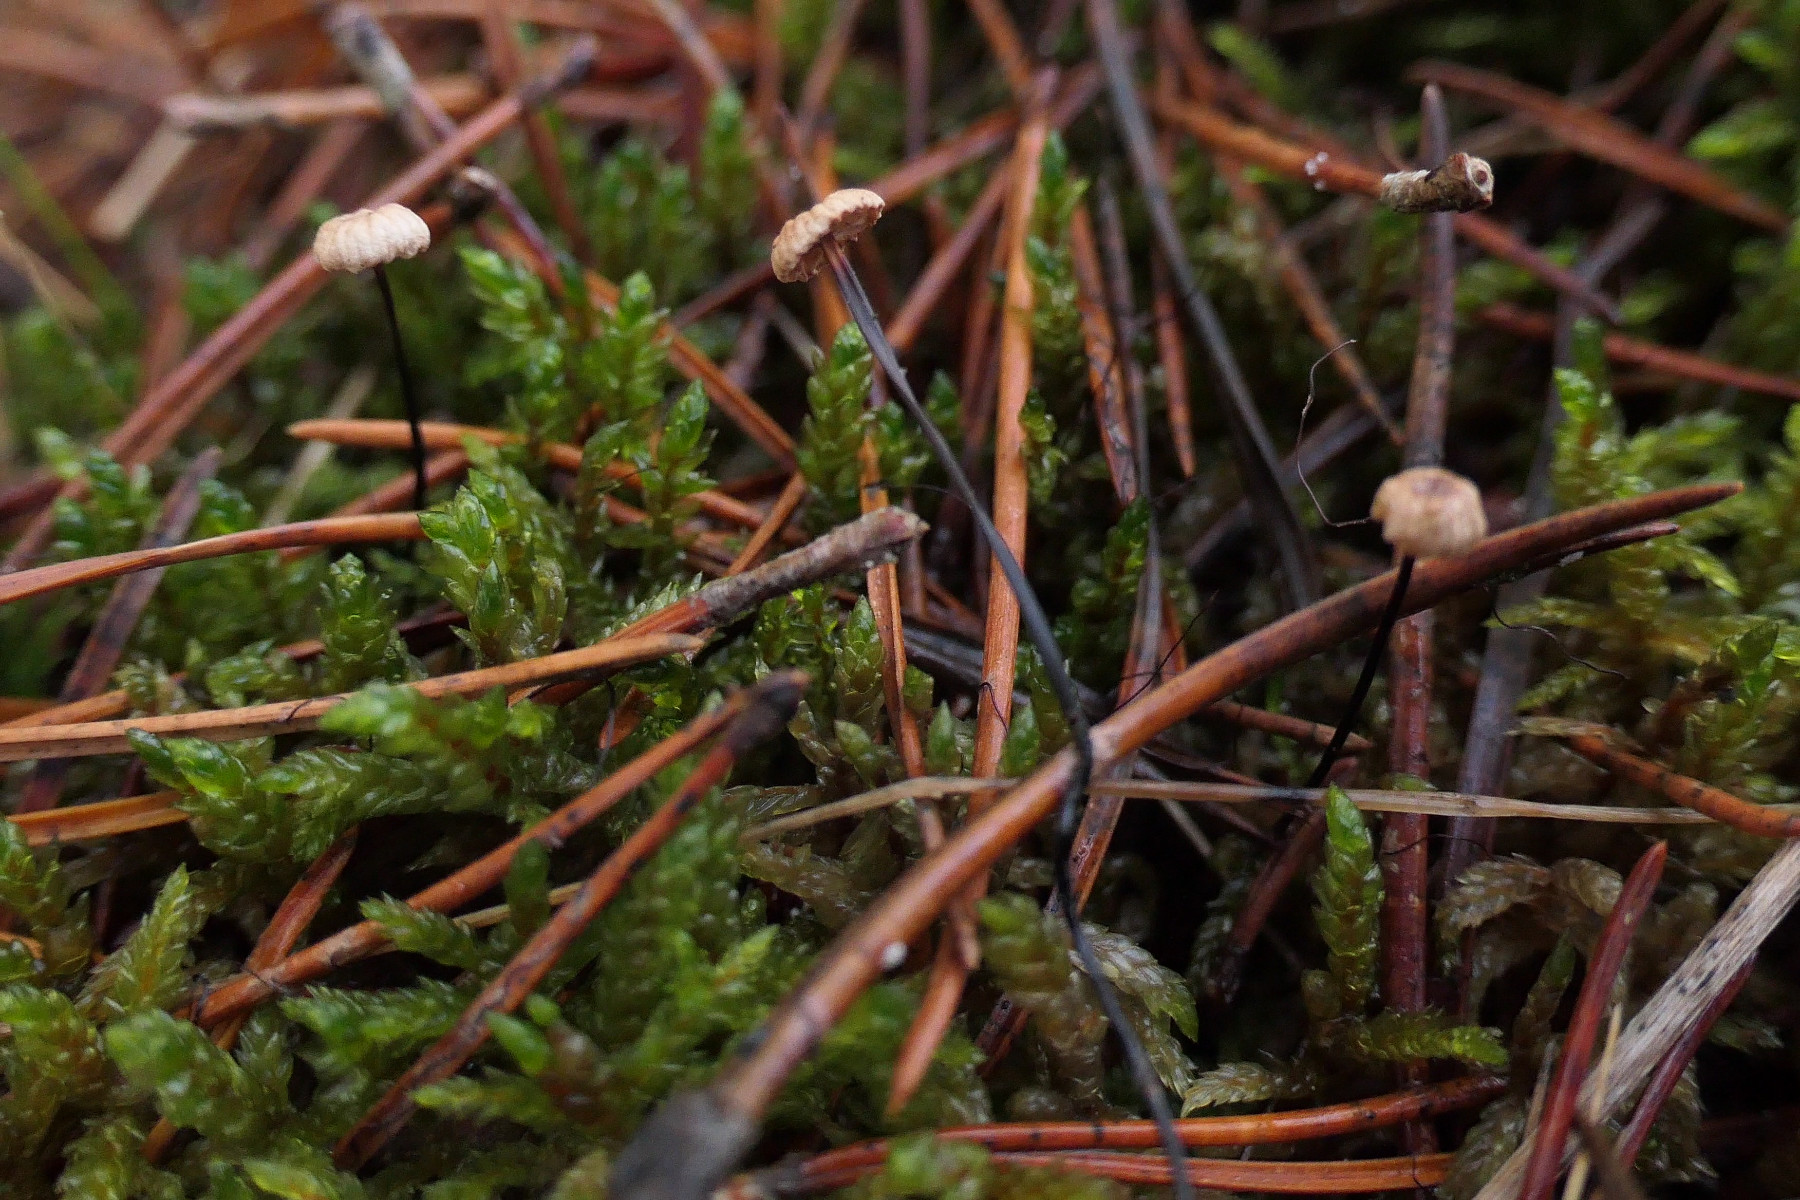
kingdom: Fungi
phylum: Basidiomycota
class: Agaricomycetes
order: Agaricales
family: Omphalotaceae
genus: Gymnopus
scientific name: Gymnopus androsaceus
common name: trådstokket fladhat
